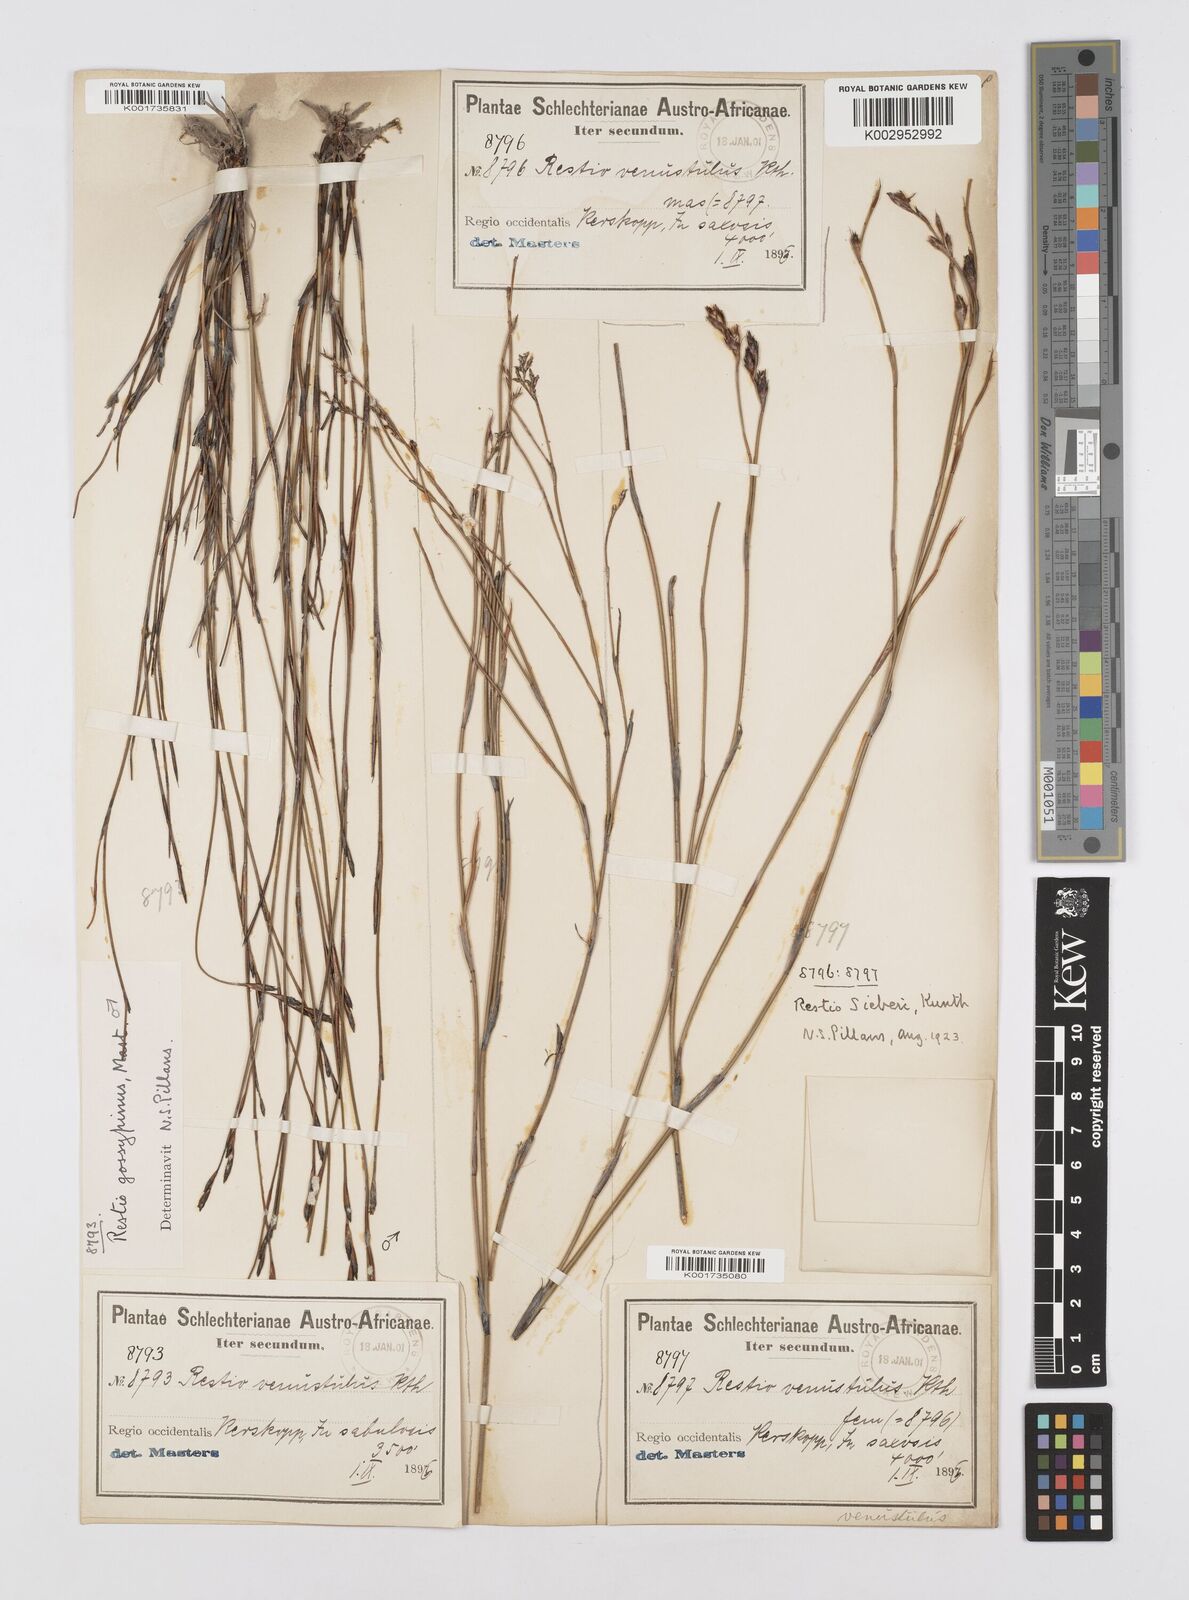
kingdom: Plantae
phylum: Tracheophyta
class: Liliopsida
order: Poales
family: Restionaceae
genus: Restio
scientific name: Restio sieberi
